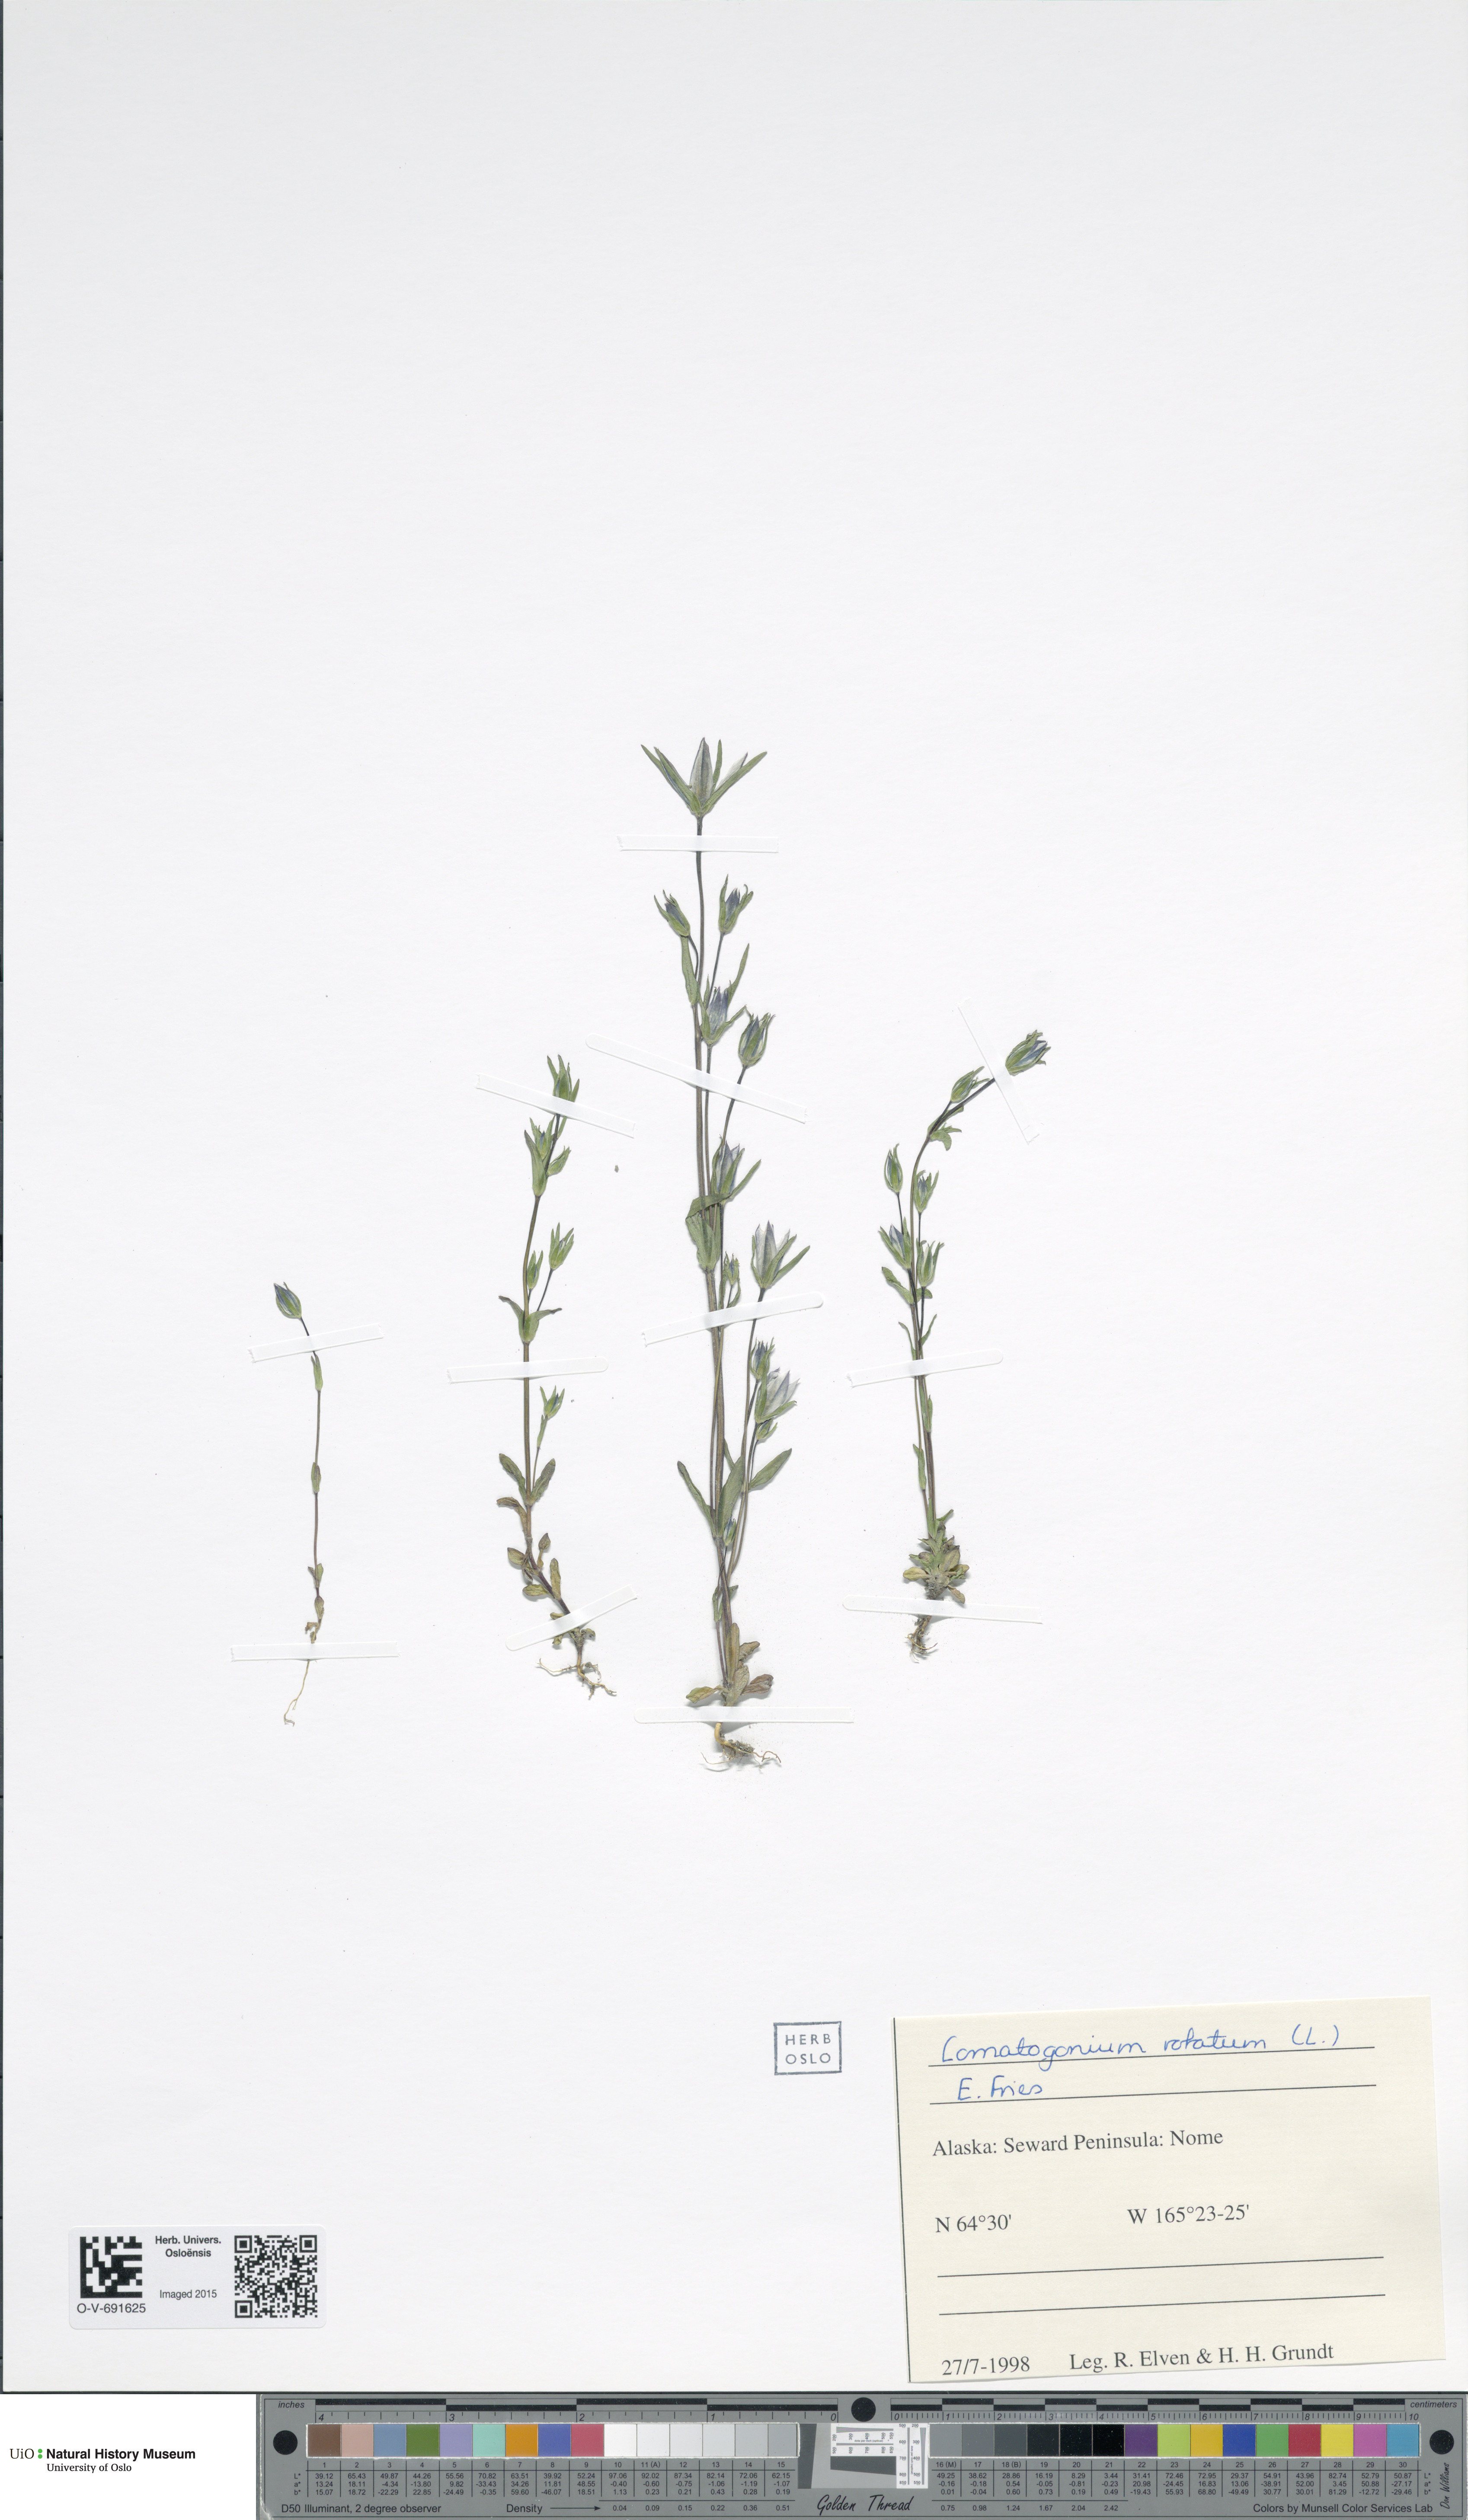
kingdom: Plantae
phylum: Tracheophyta
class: Magnoliopsida
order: Gentianales
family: Gentianaceae
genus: Lomatogonium
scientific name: Lomatogonium rotatum
